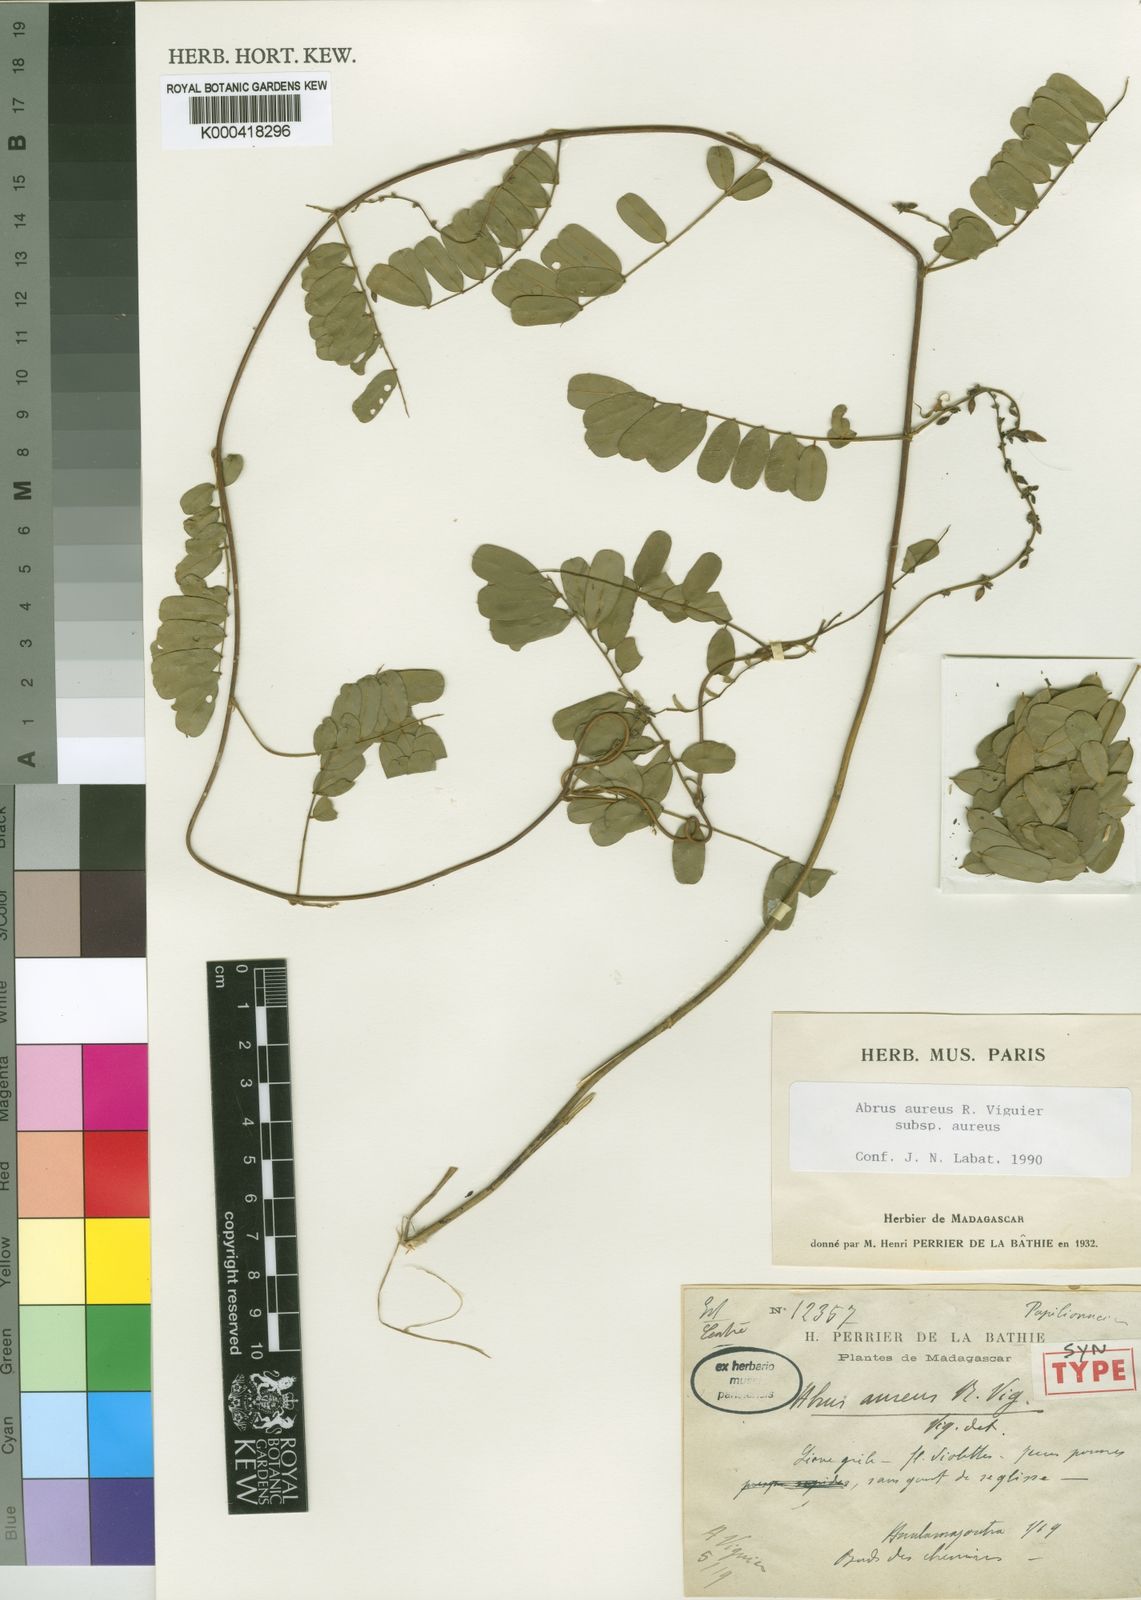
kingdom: Plantae
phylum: Tracheophyta
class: Magnoliopsida
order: Fabales
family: Fabaceae
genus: Abrus
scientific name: Abrus aureus
